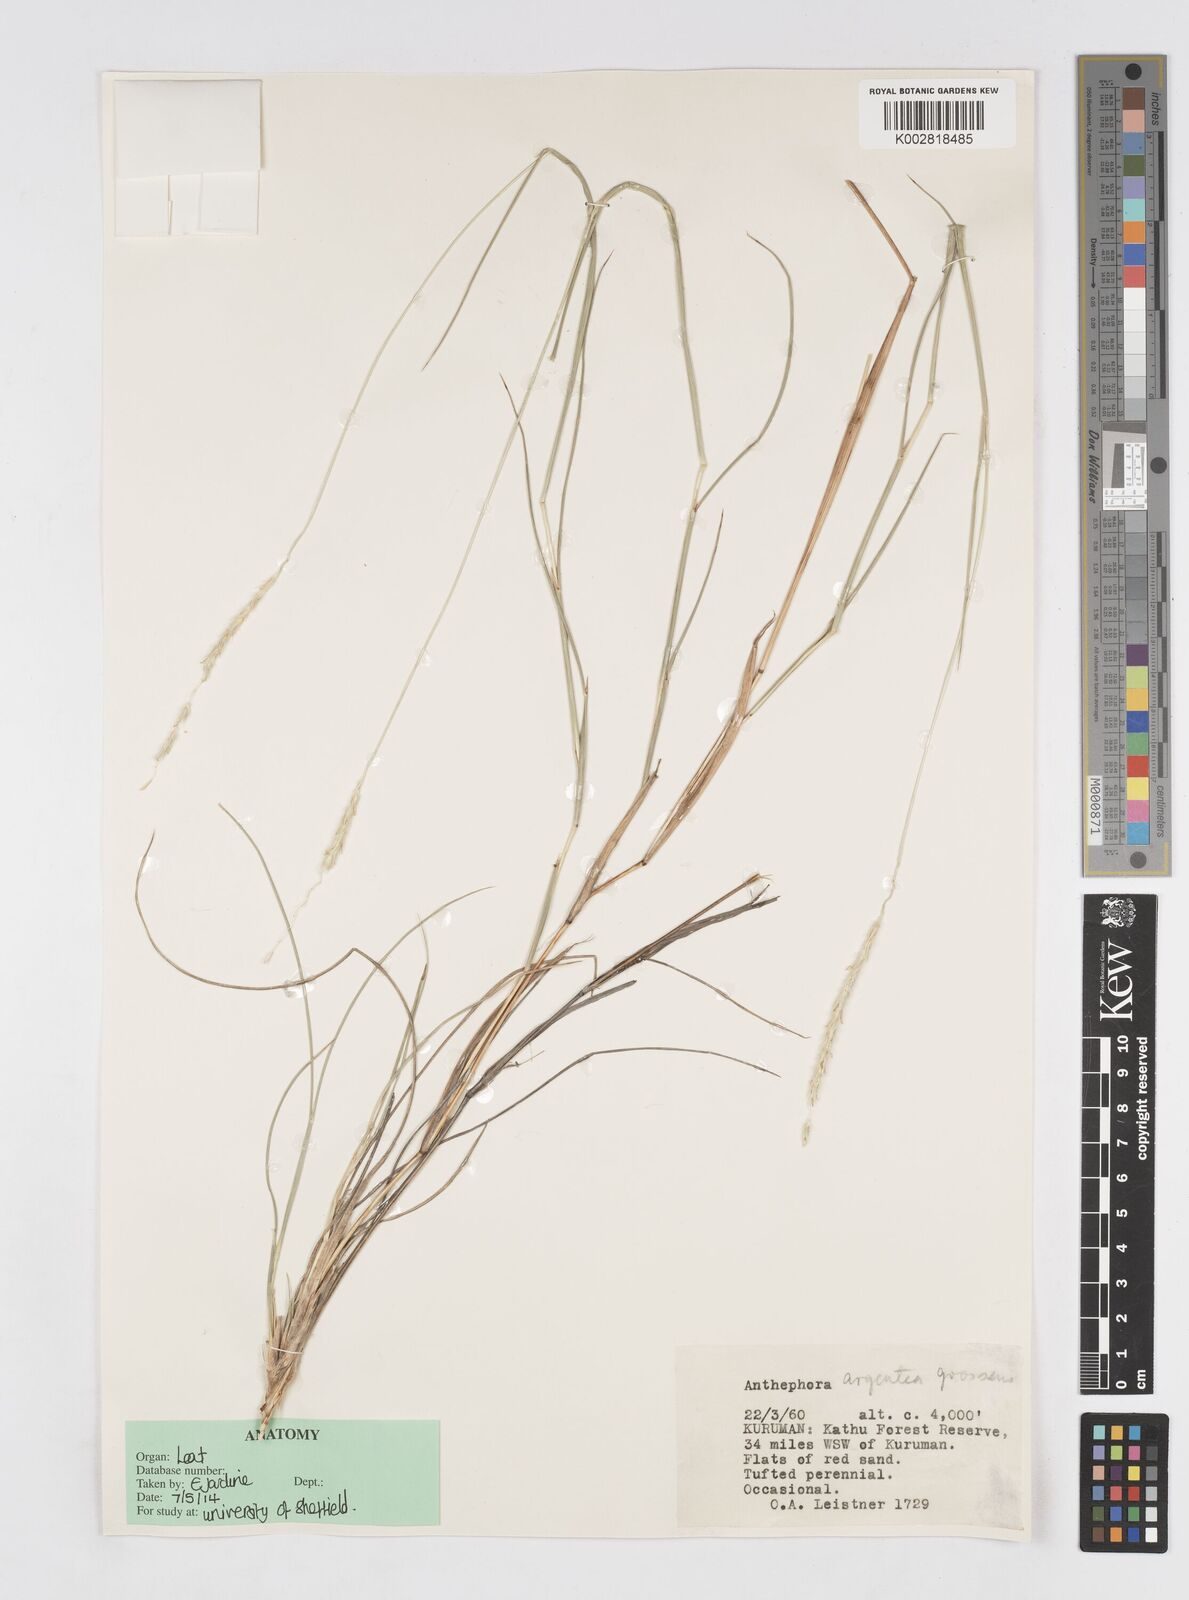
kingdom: Plantae
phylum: Tracheophyta
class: Liliopsida
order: Poales
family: Poaceae
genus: Anthephora
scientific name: Anthephora argentea
